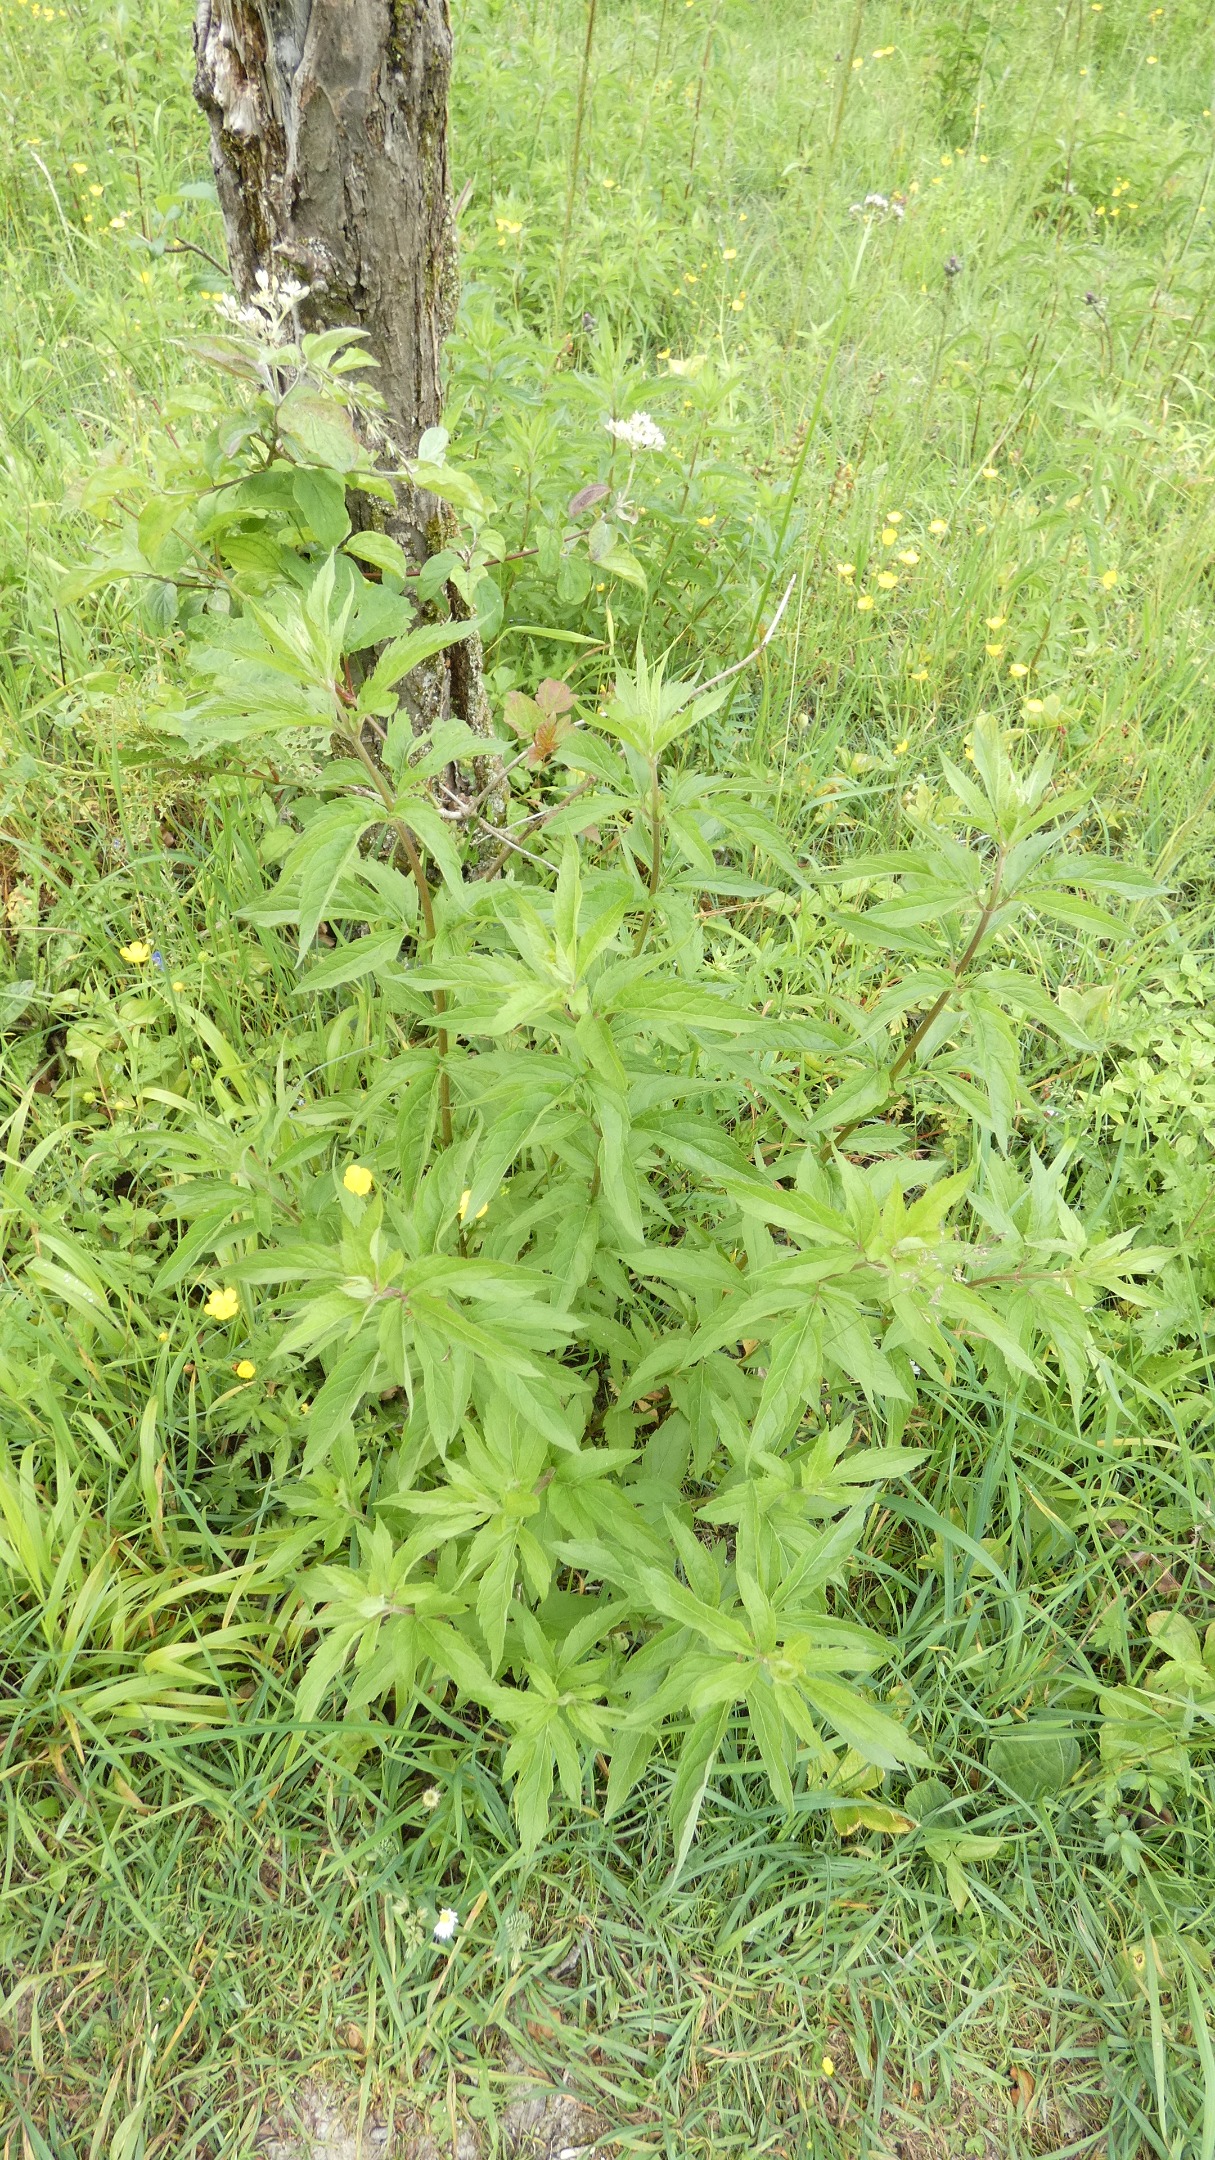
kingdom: Plantae
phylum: Tracheophyta
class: Magnoliopsida
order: Asterales
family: Asteraceae
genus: Eupatorium
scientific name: Eupatorium cannabinum
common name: Hjortetrøst
